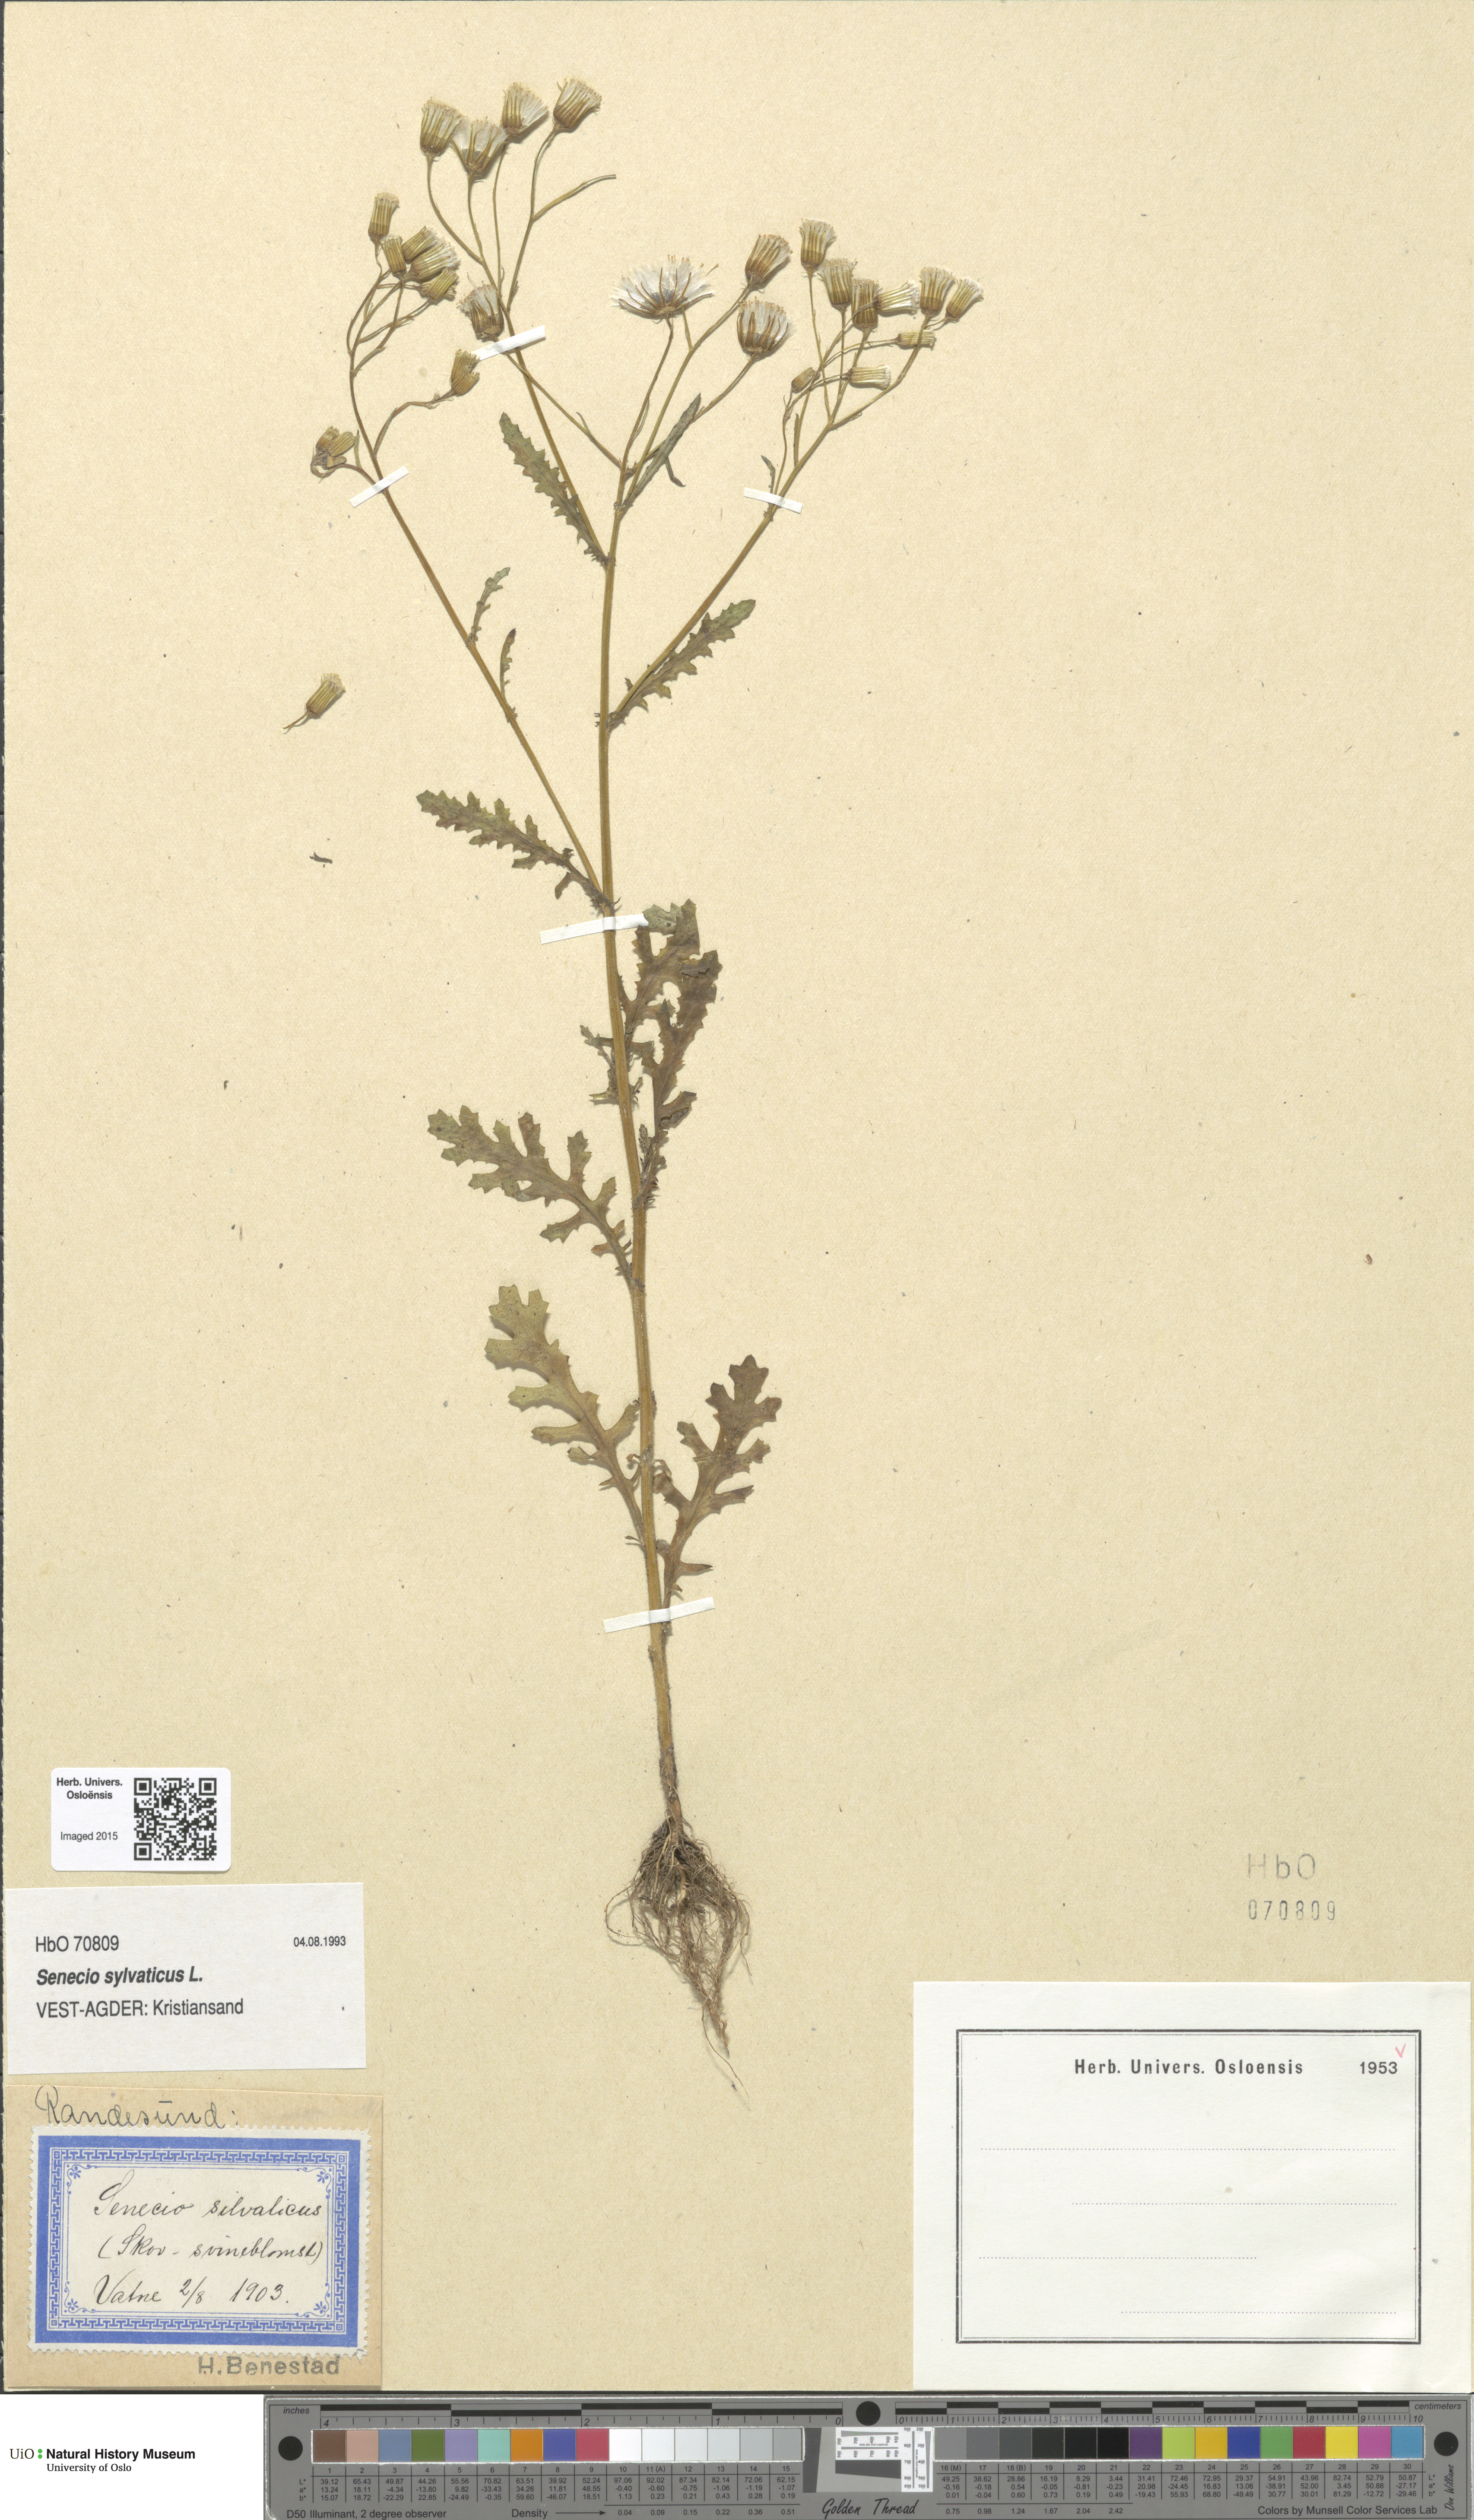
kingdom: Plantae
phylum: Tracheophyta
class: Magnoliopsida
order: Asterales
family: Asteraceae
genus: Senecio
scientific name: Senecio sylvaticus
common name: Woodland ragwort
